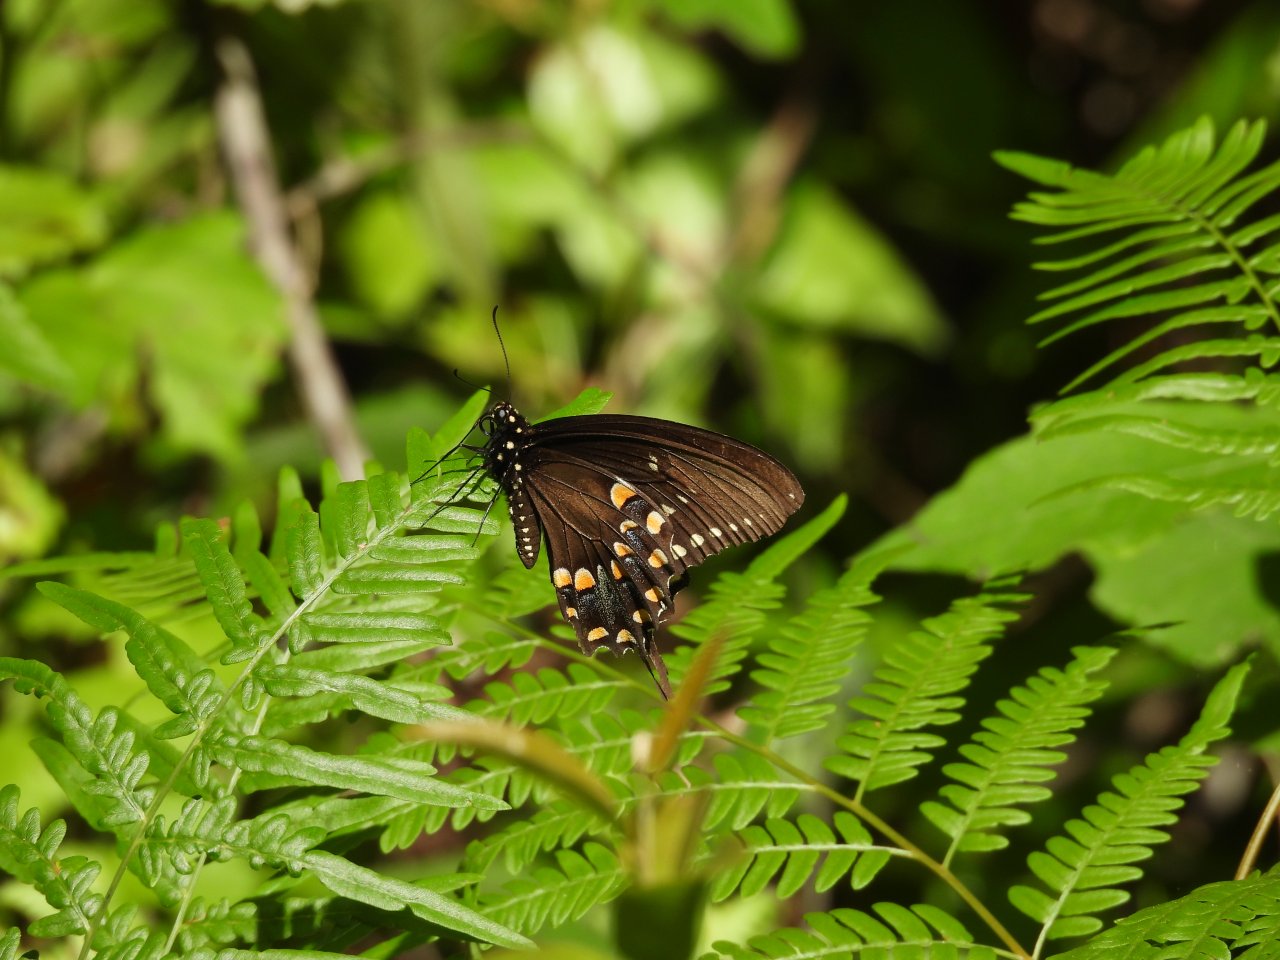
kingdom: Animalia
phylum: Arthropoda
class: Insecta
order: Lepidoptera
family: Papilionidae
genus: Pterourus
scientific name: Pterourus troilus
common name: Spicebush Swallowtail
